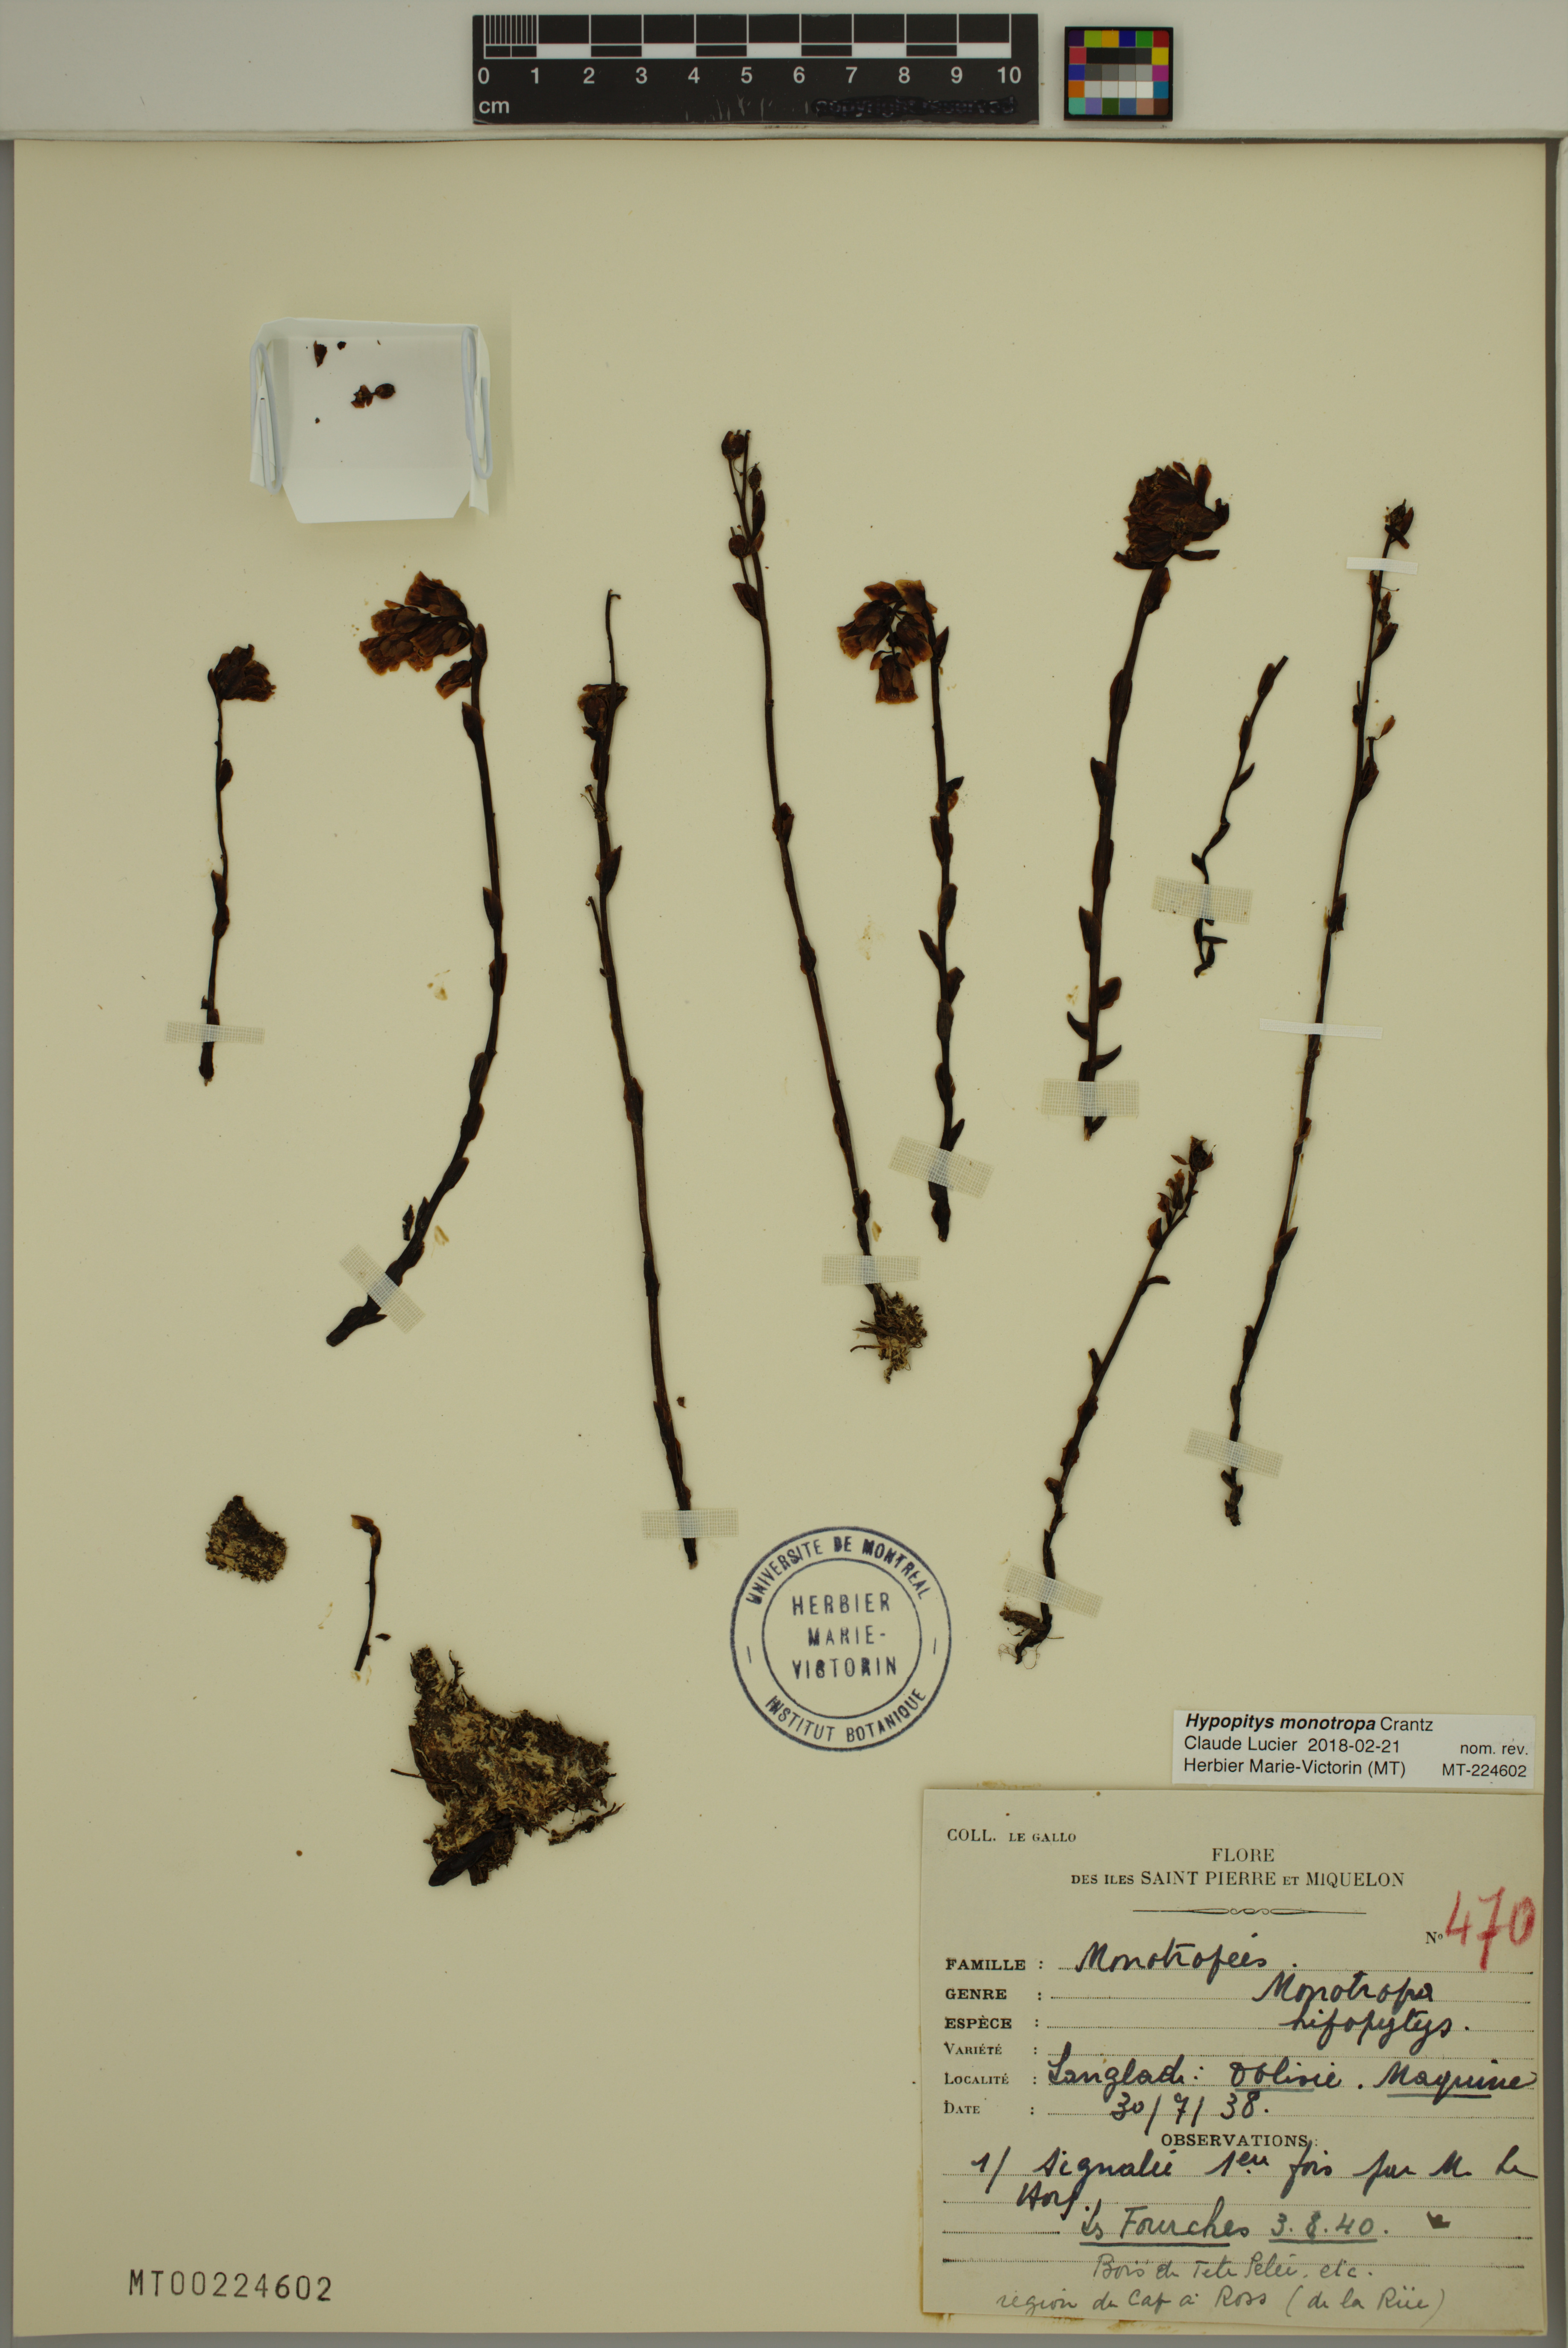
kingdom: Plantae
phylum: Tracheophyta
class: Magnoliopsida
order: Ericales
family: Ericaceae
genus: Hypopitys
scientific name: Hypopitys monotropa
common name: Yellow bird's-nest
